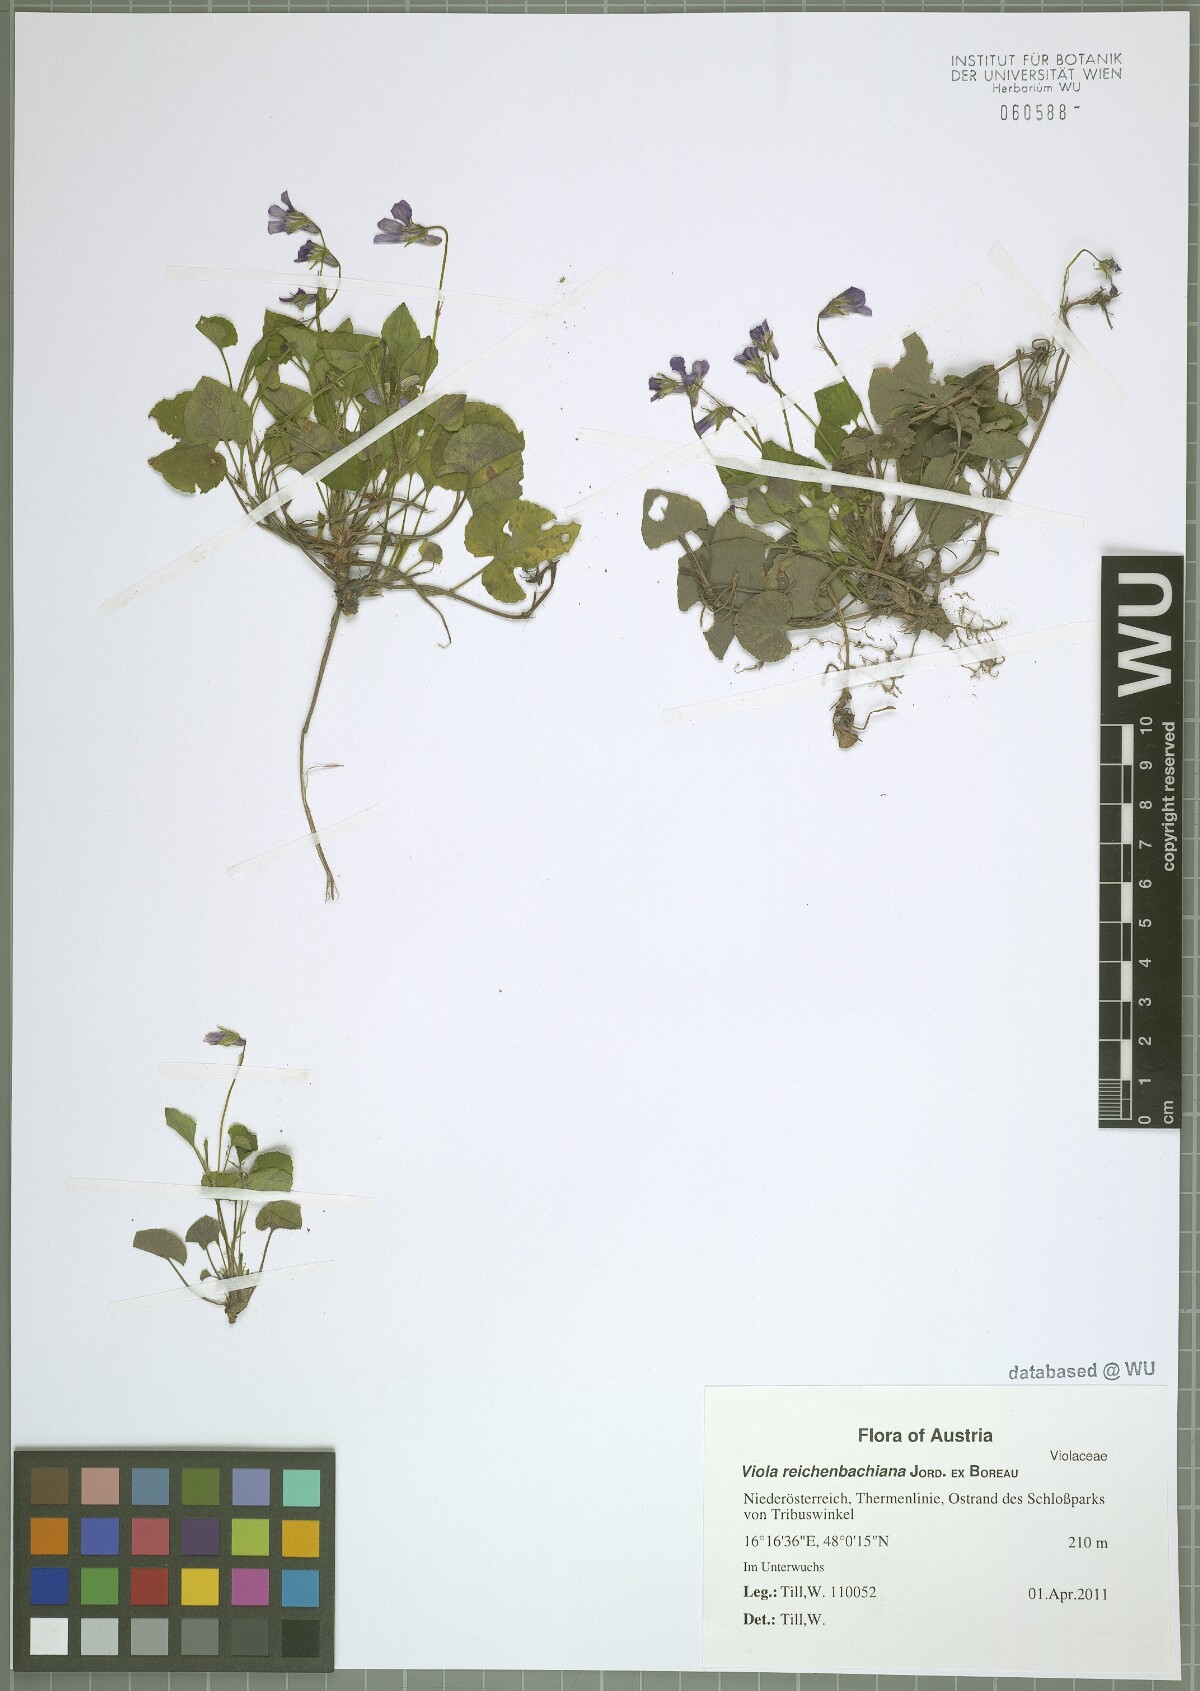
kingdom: Plantae
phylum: Tracheophyta
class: Magnoliopsida
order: Malpighiales
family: Violaceae
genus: Viola
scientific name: Viola reichenbachiana
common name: Early dog-violet
